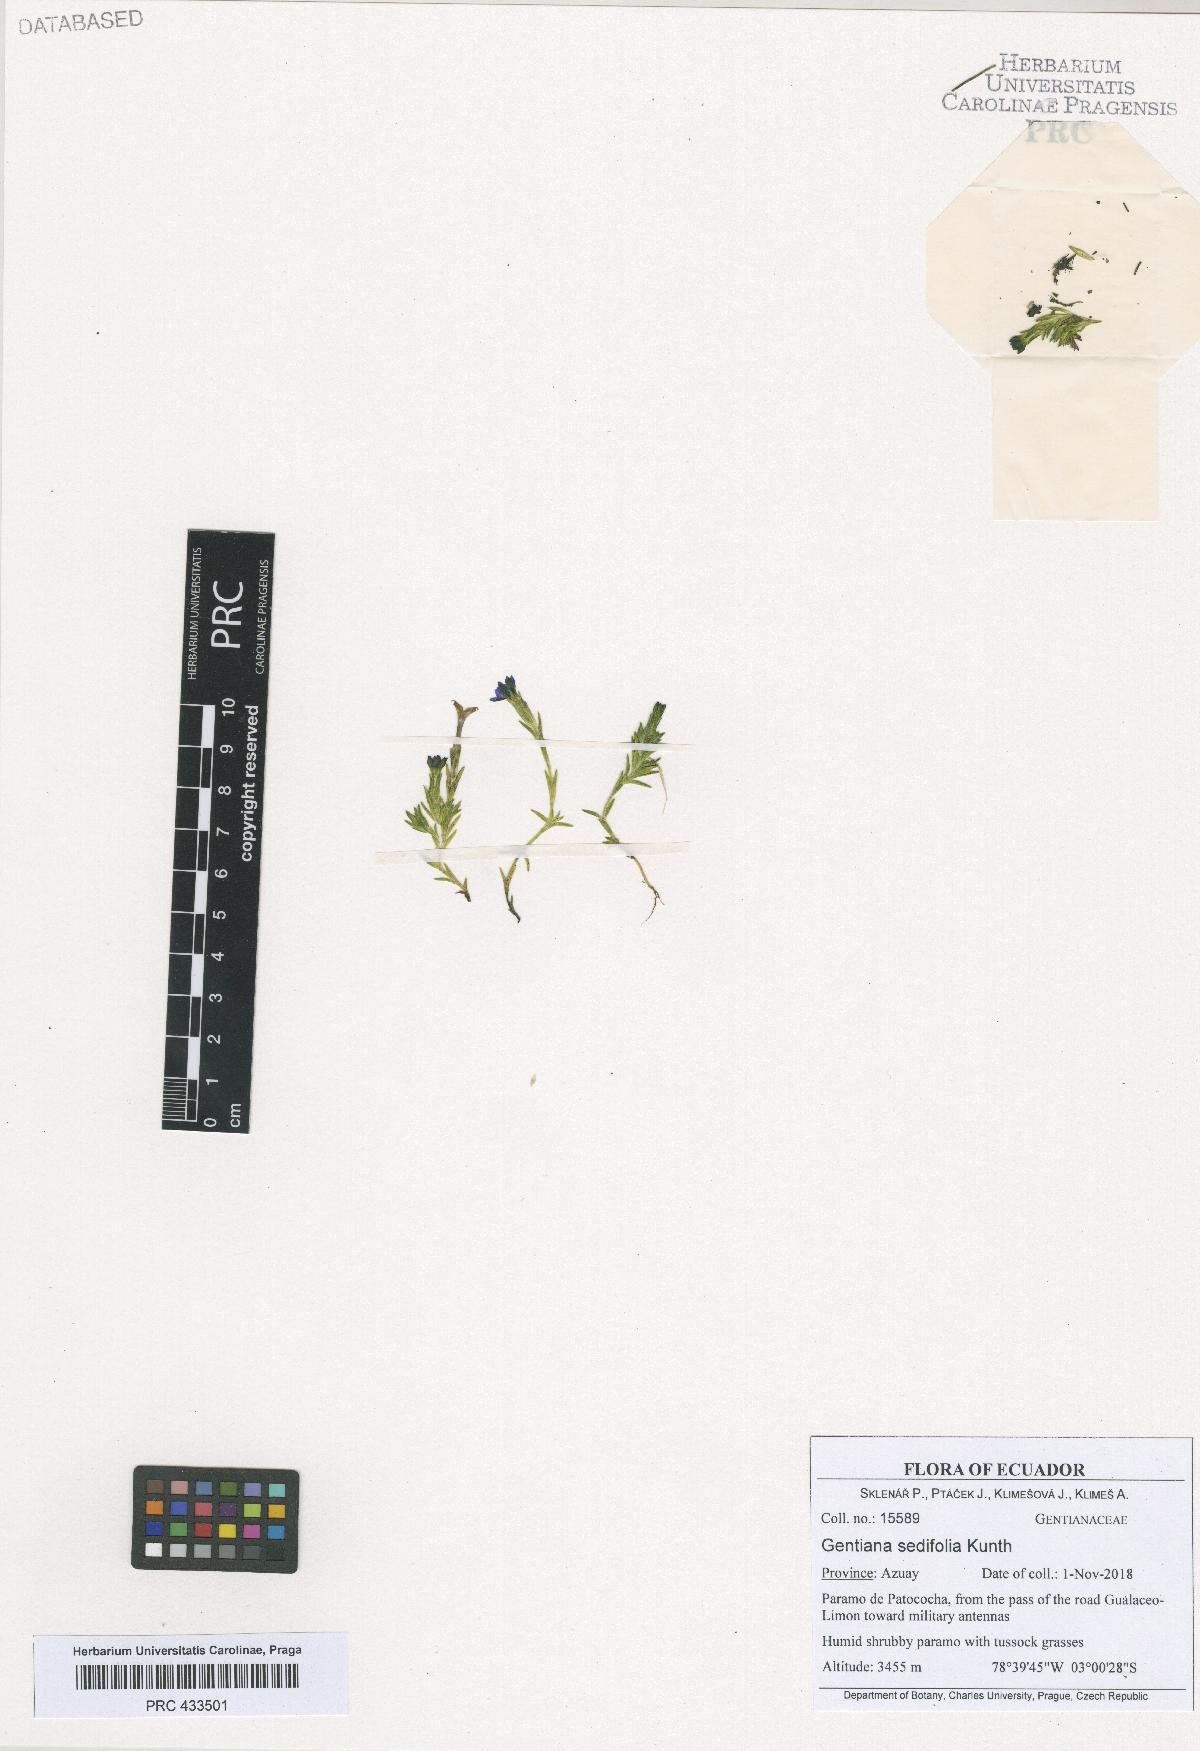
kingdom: Plantae
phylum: Tracheophyta
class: Magnoliopsida
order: Gentianales
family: Gentianaceae
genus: Gentiana
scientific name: Gentiana sedifolia
